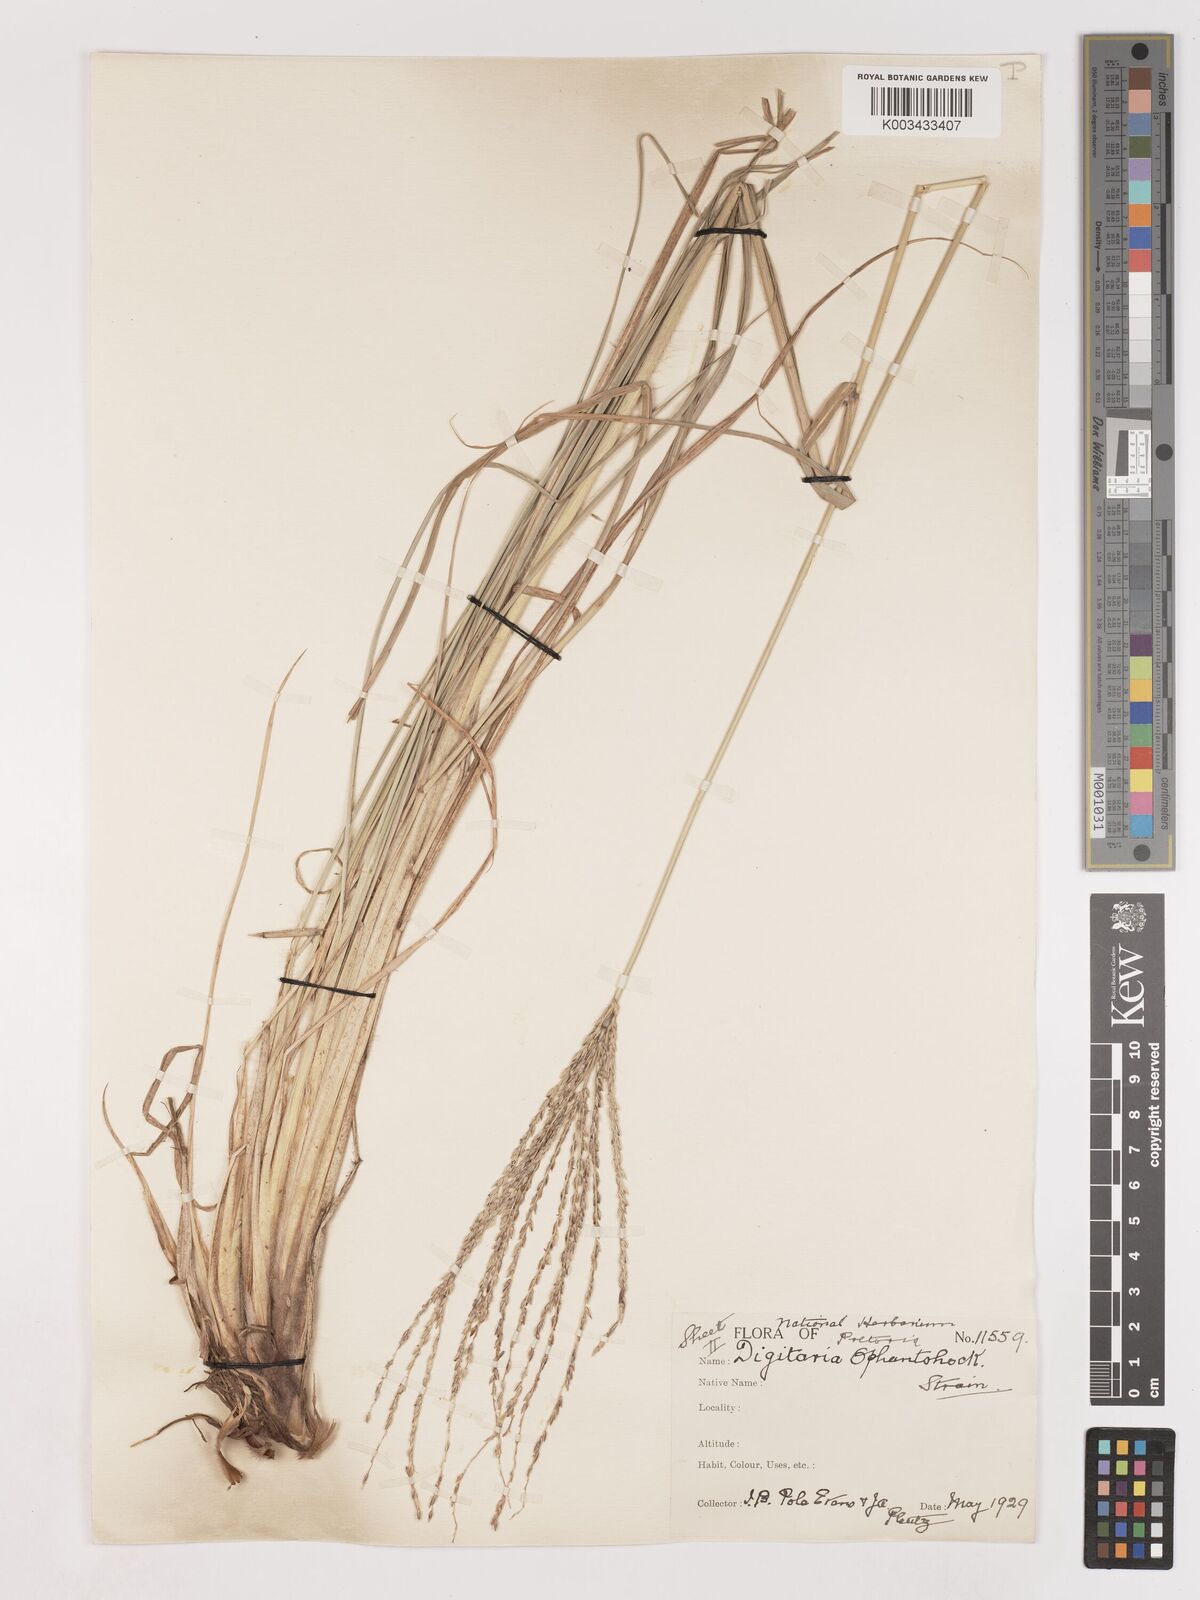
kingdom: Plantae
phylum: Tracheophyta
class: Liliopsida
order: Poales
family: Poaceae
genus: Digitaria
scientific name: Digitaria eriantha
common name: Digitgrass
